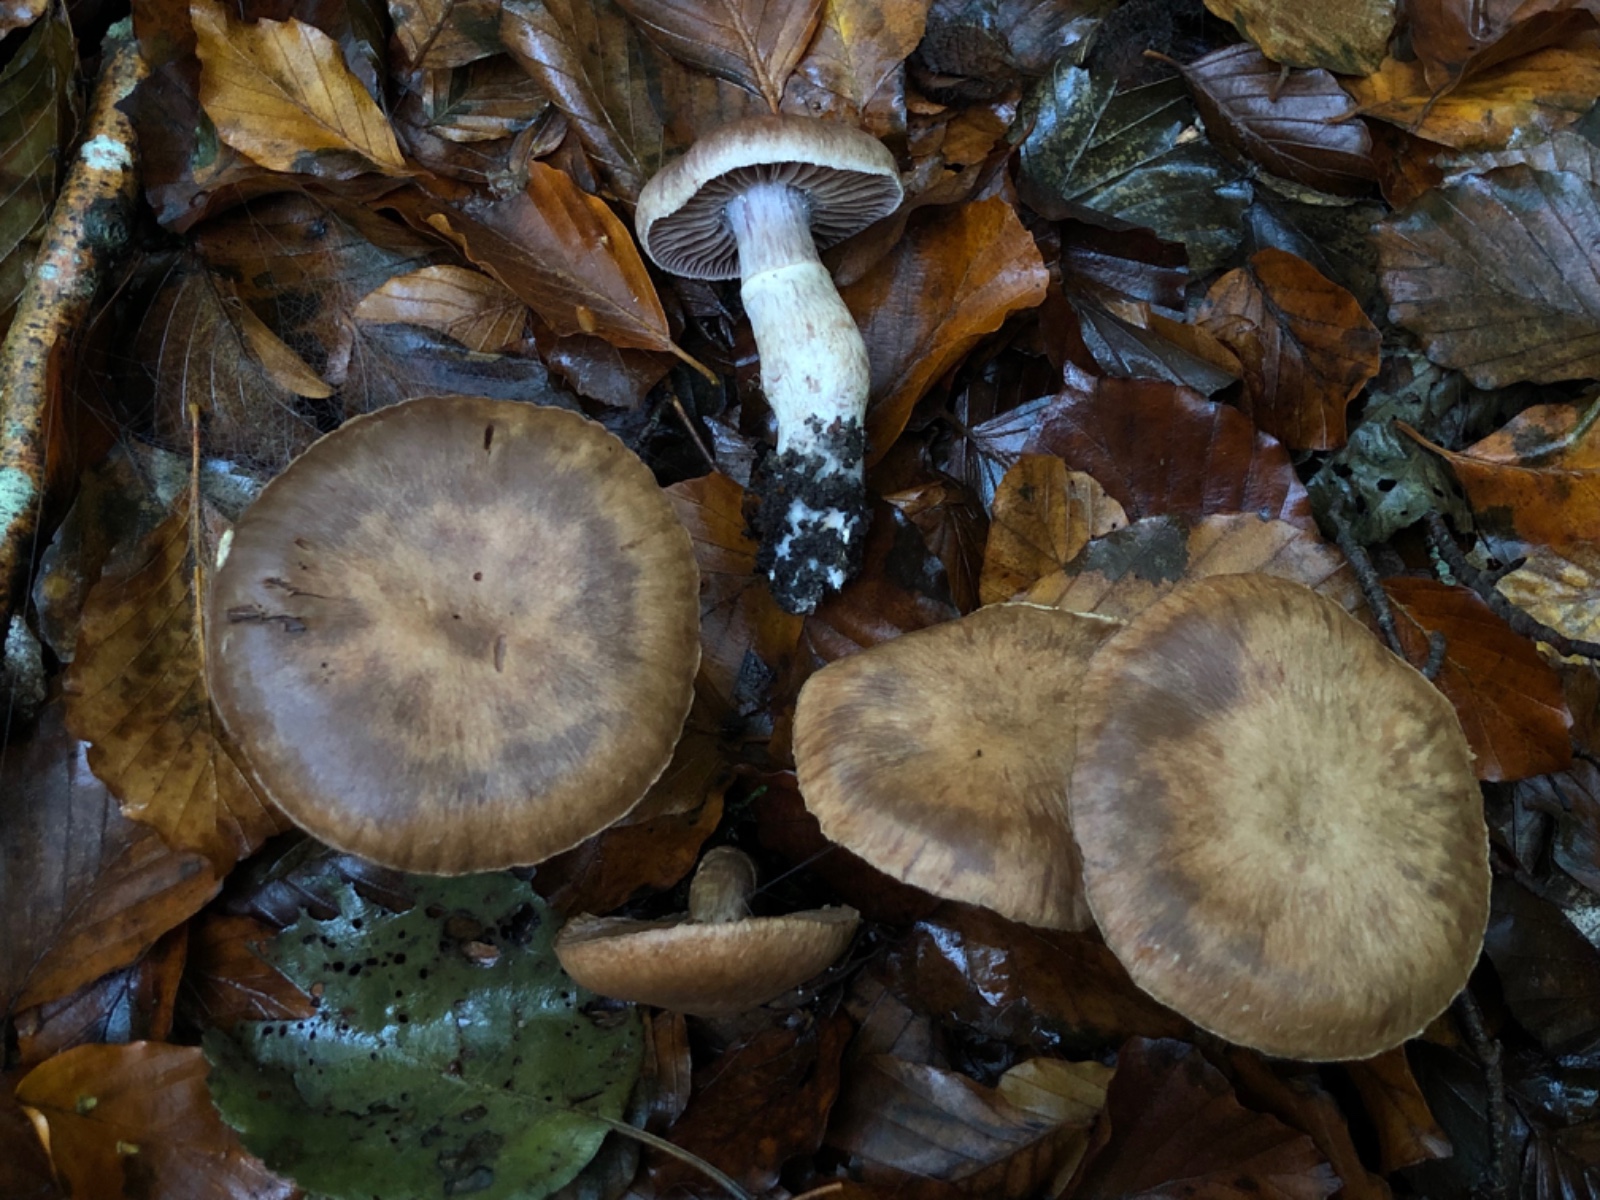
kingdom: Fungi
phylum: Basidiomycota
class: Agaricomycetes
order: Agaricales
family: Cortinariaceae
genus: Cortinarius
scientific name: Cortinarius torvus
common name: champignonagtig slørhat
